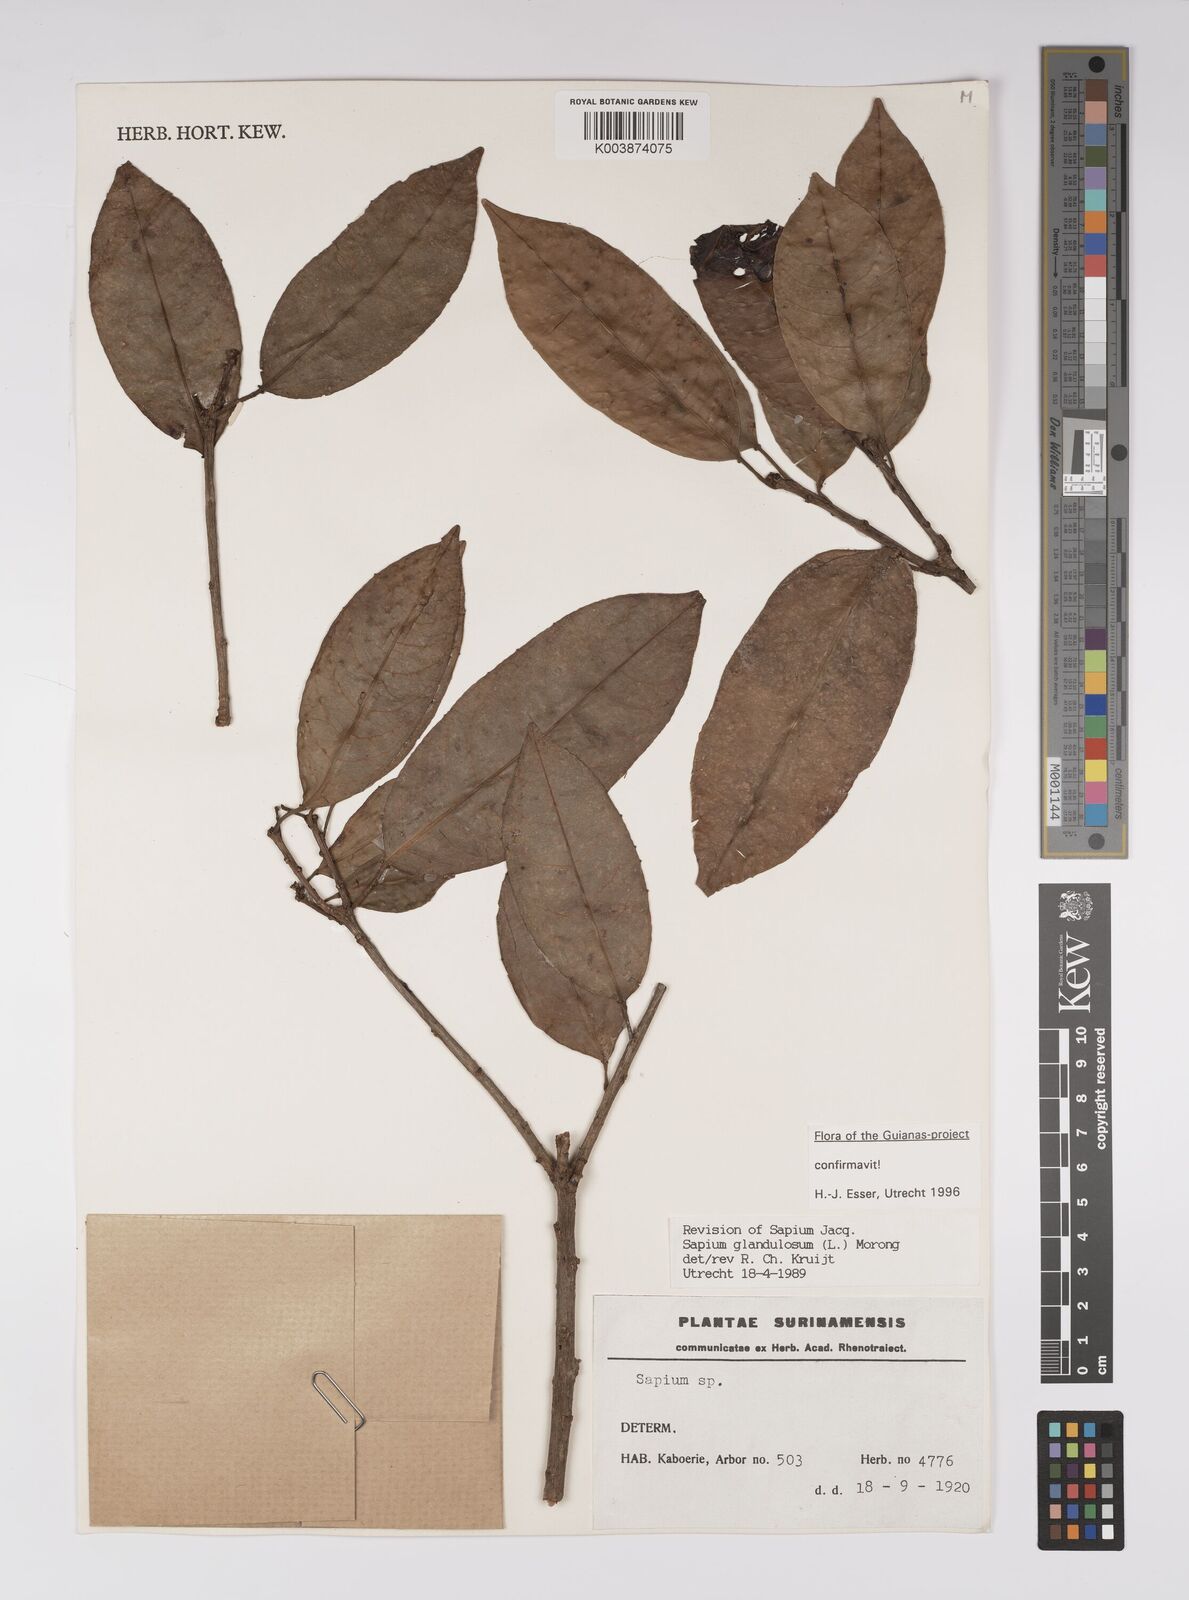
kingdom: Plantae
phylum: Tracheophyta
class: Magnoliopsida
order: Malpighiales
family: Euphorbiaceae
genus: Sapium
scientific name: Sapium glandulosum
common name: Milktree
